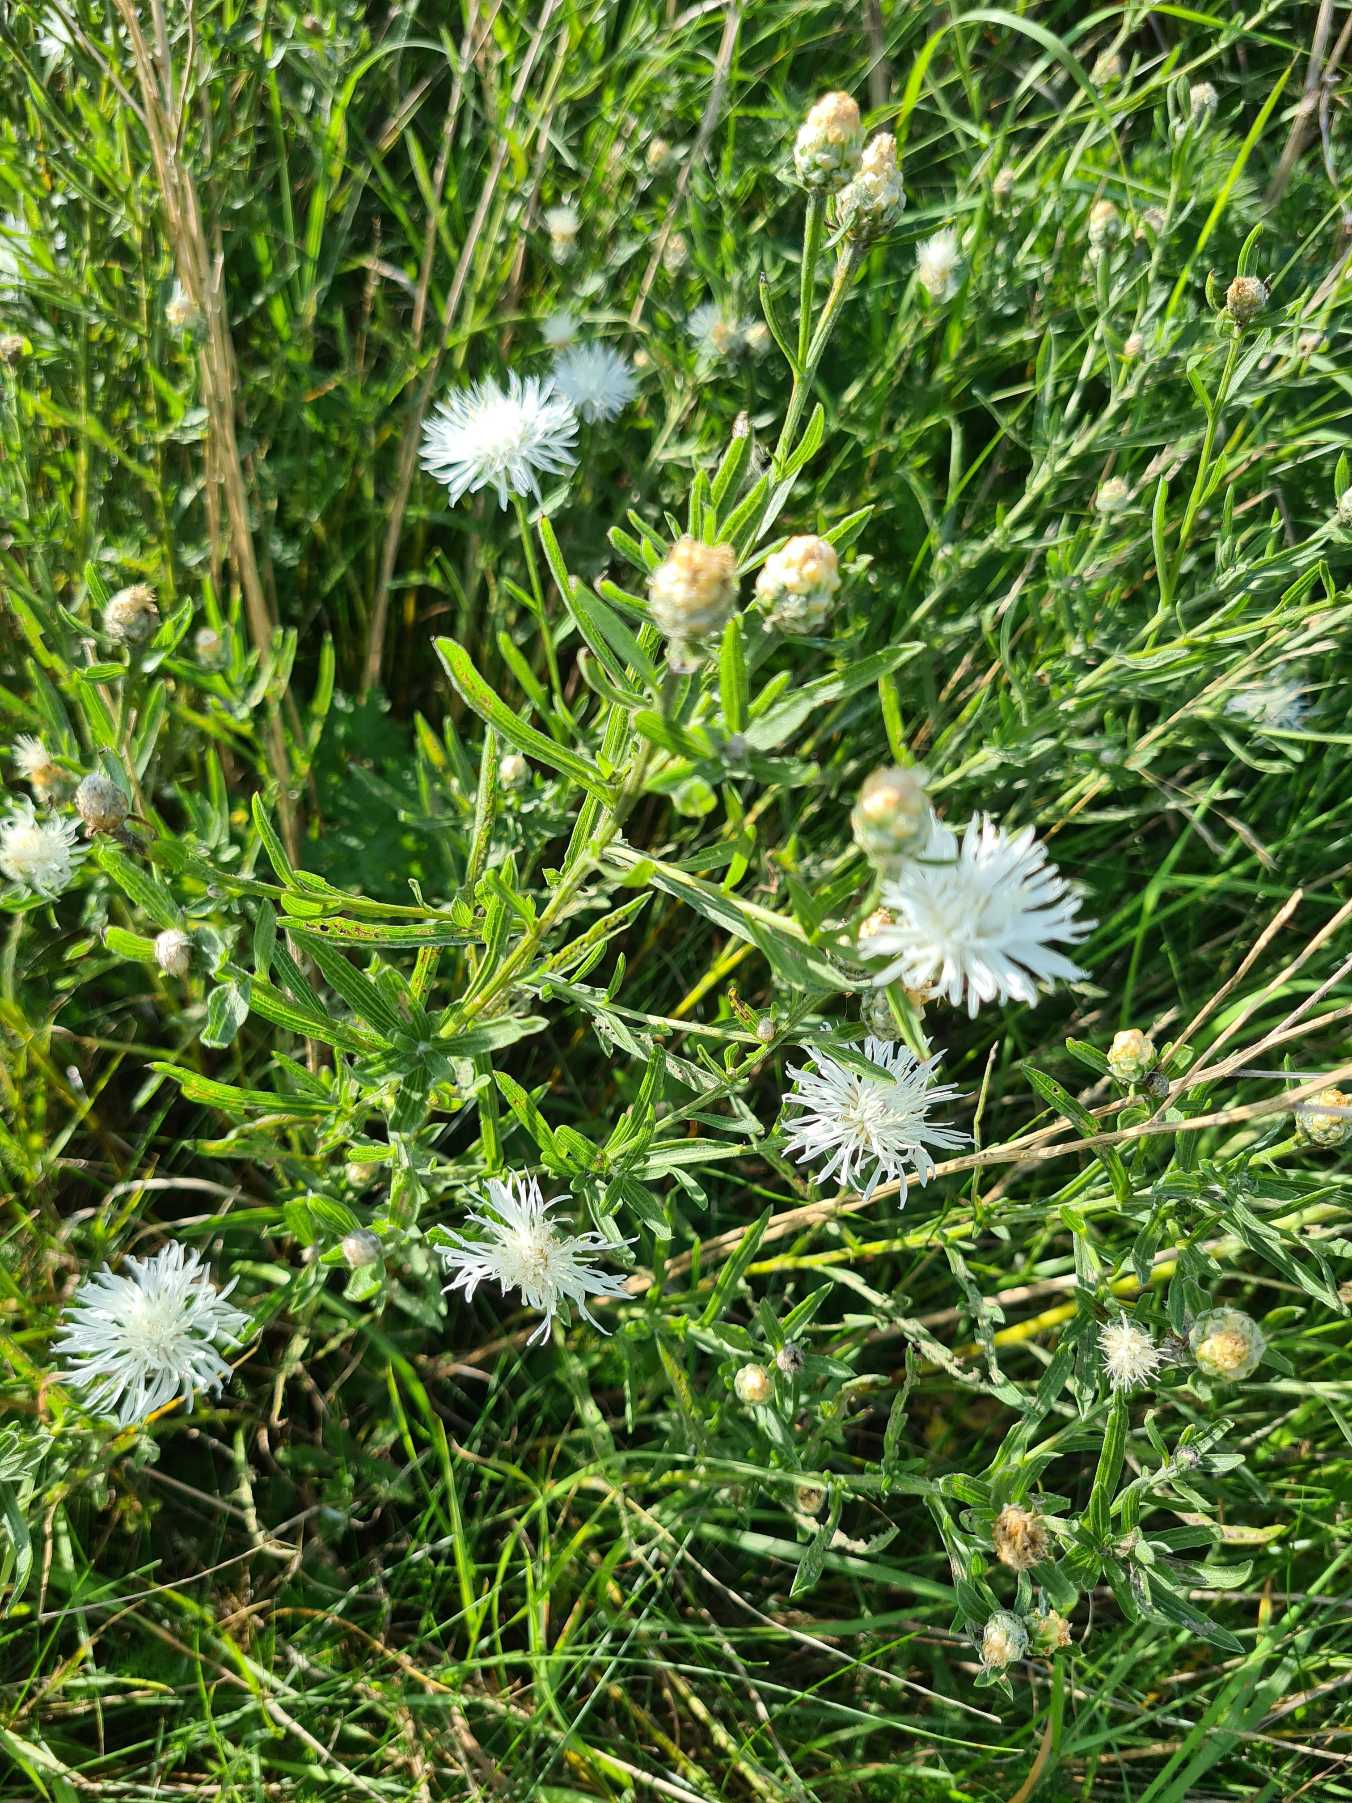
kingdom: Plantae
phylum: Tracheophyta
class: Magnoliopsida
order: Asterales
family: Asteraceae
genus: Centaurea
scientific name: Centaurea jacea
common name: Almindelig knopurt
